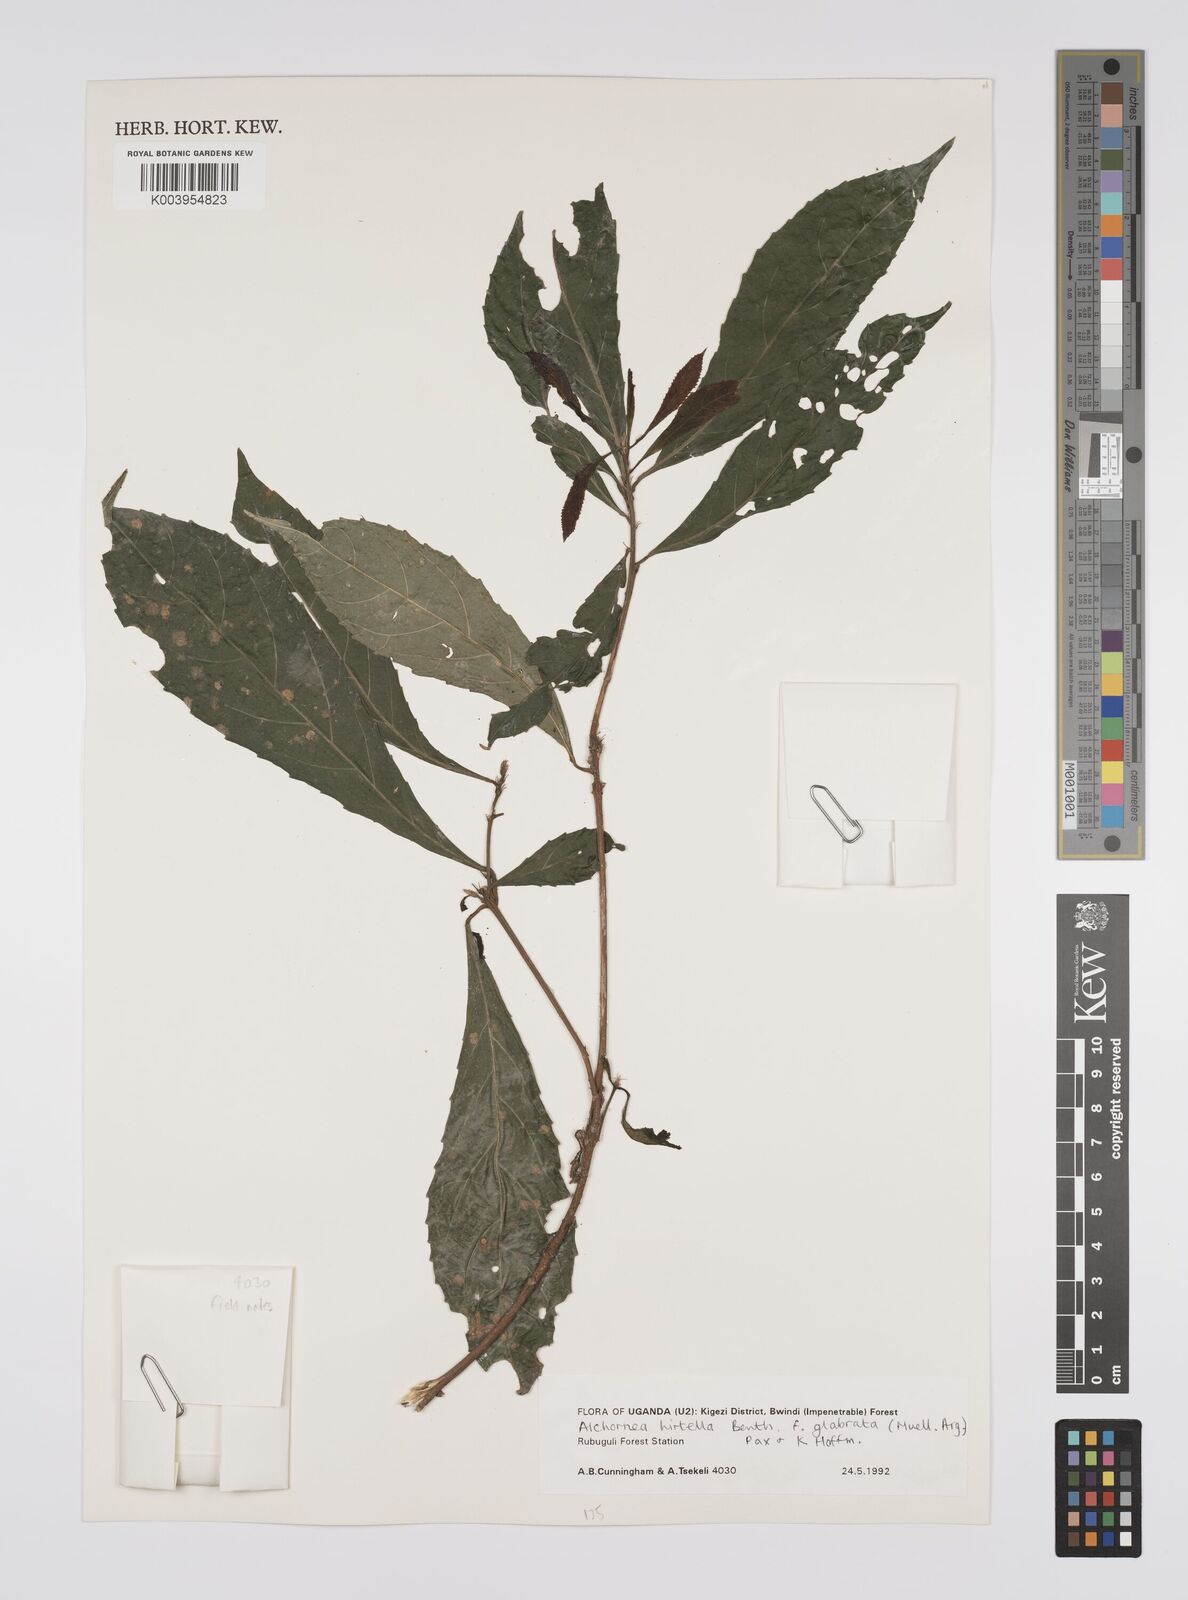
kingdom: Plantae
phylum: Tracheophyta
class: Magnoliopsida
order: Malpighiales
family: Euphorbiaceae
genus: Alchornea
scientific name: Alchornea hirtella
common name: Forest bead-string
